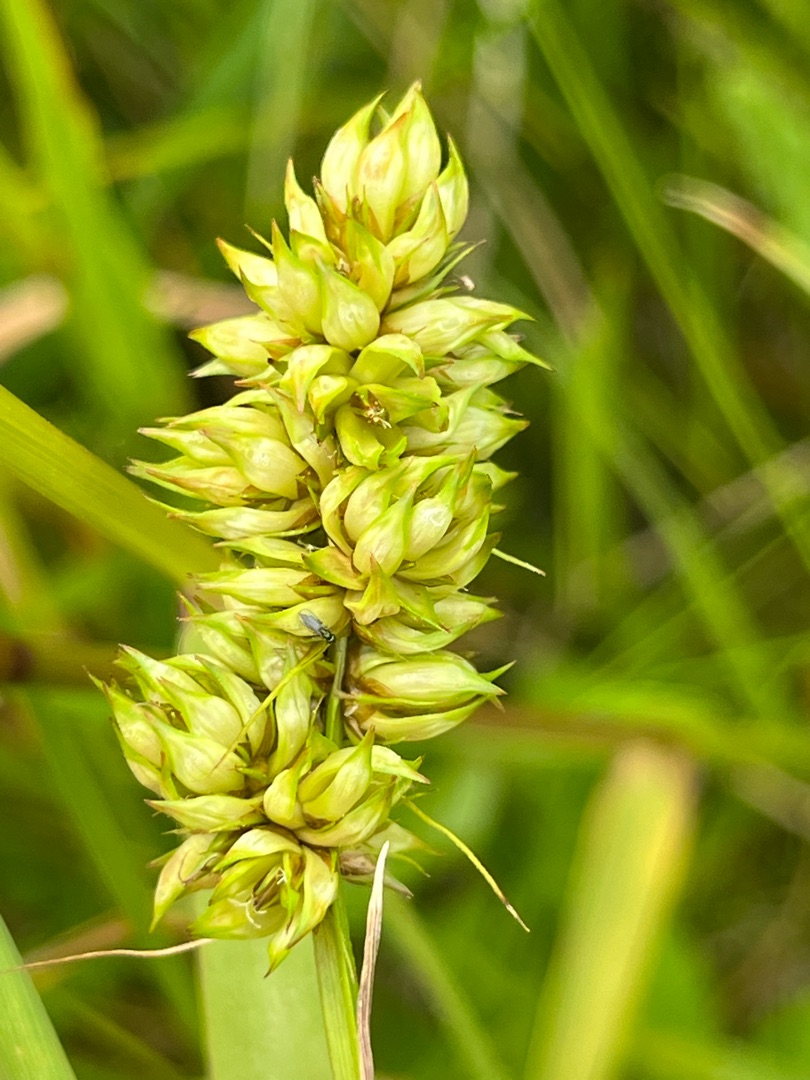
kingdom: Animalia
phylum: Arthropoda
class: Insecta
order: Diptera
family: Cecidomyiidae
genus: Dasineura
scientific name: Dasineura inflata
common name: Syltstargalmyg
